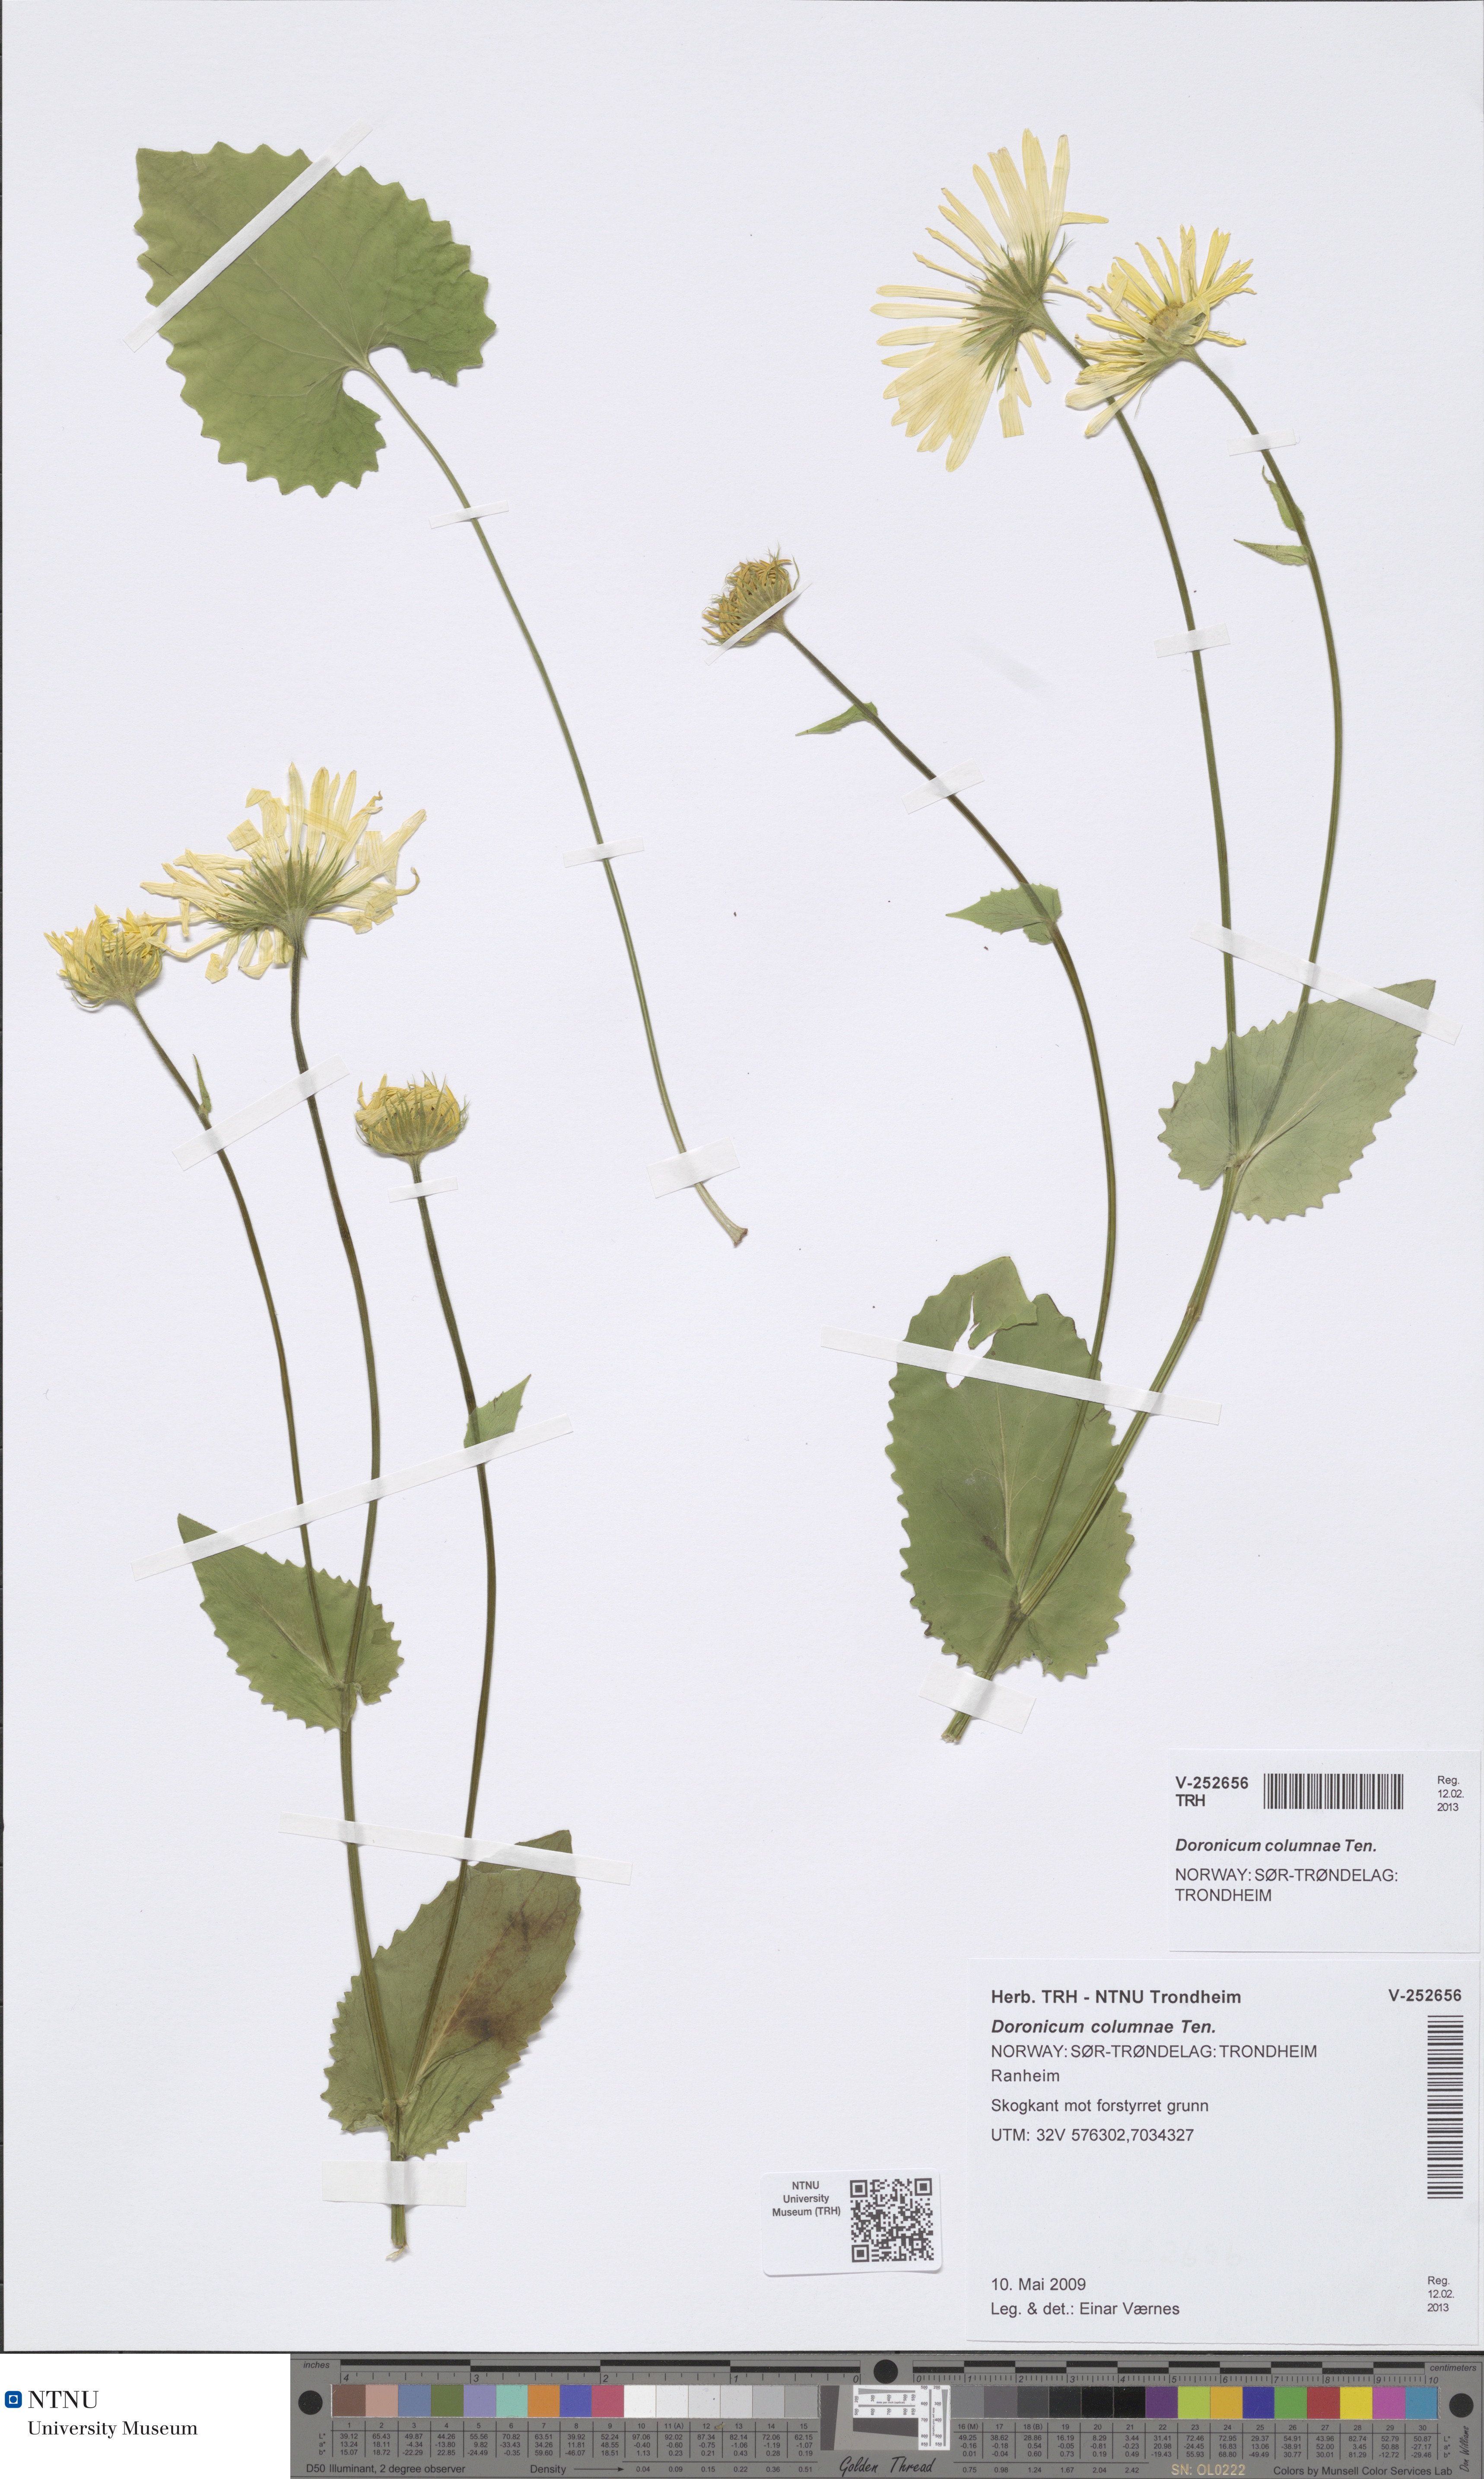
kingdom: Plantae
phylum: Tracheophyta
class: Magnoliopsida
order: Asterales
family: Asteraceae
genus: Doronicum
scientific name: Doronicum pardalianches
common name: Leopard's-bane
